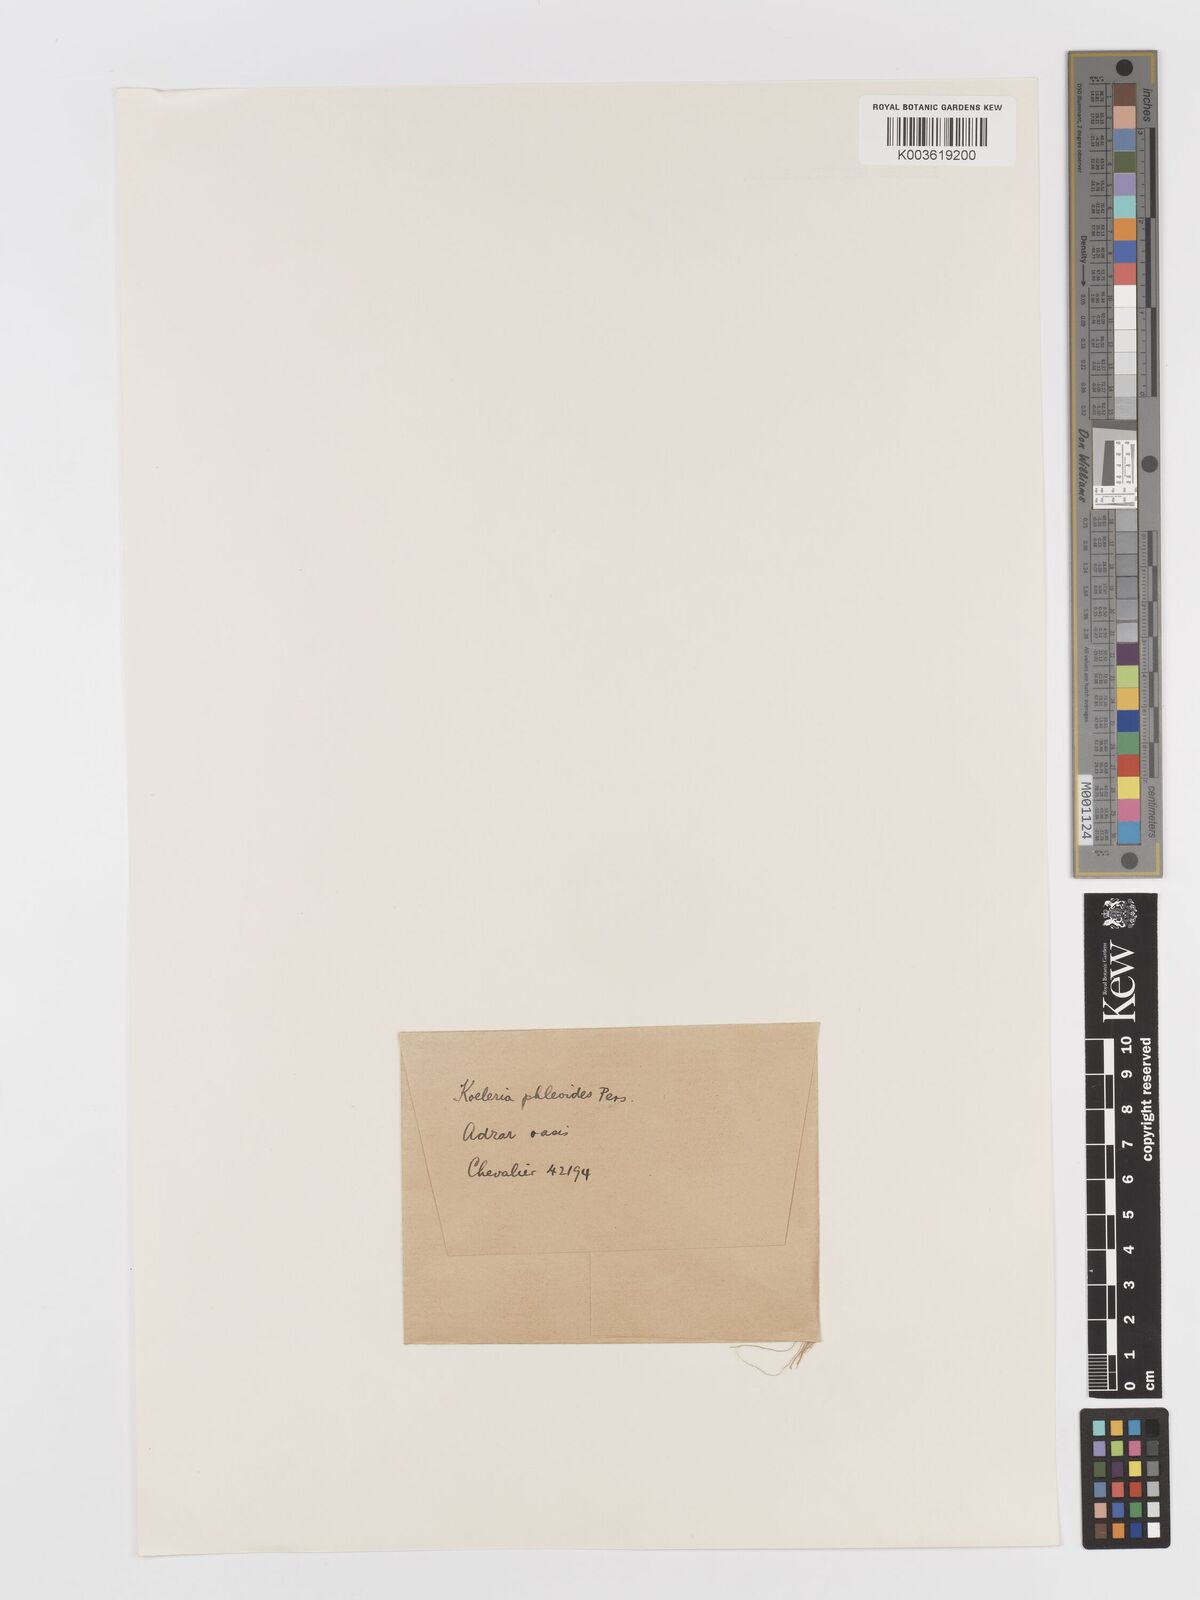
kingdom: Plantae
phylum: Tracheophyta
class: Liliopsida
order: Poales
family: Poaceae
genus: Rostraria
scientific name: Rostraria cristata
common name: Mediterranean hair-grass
